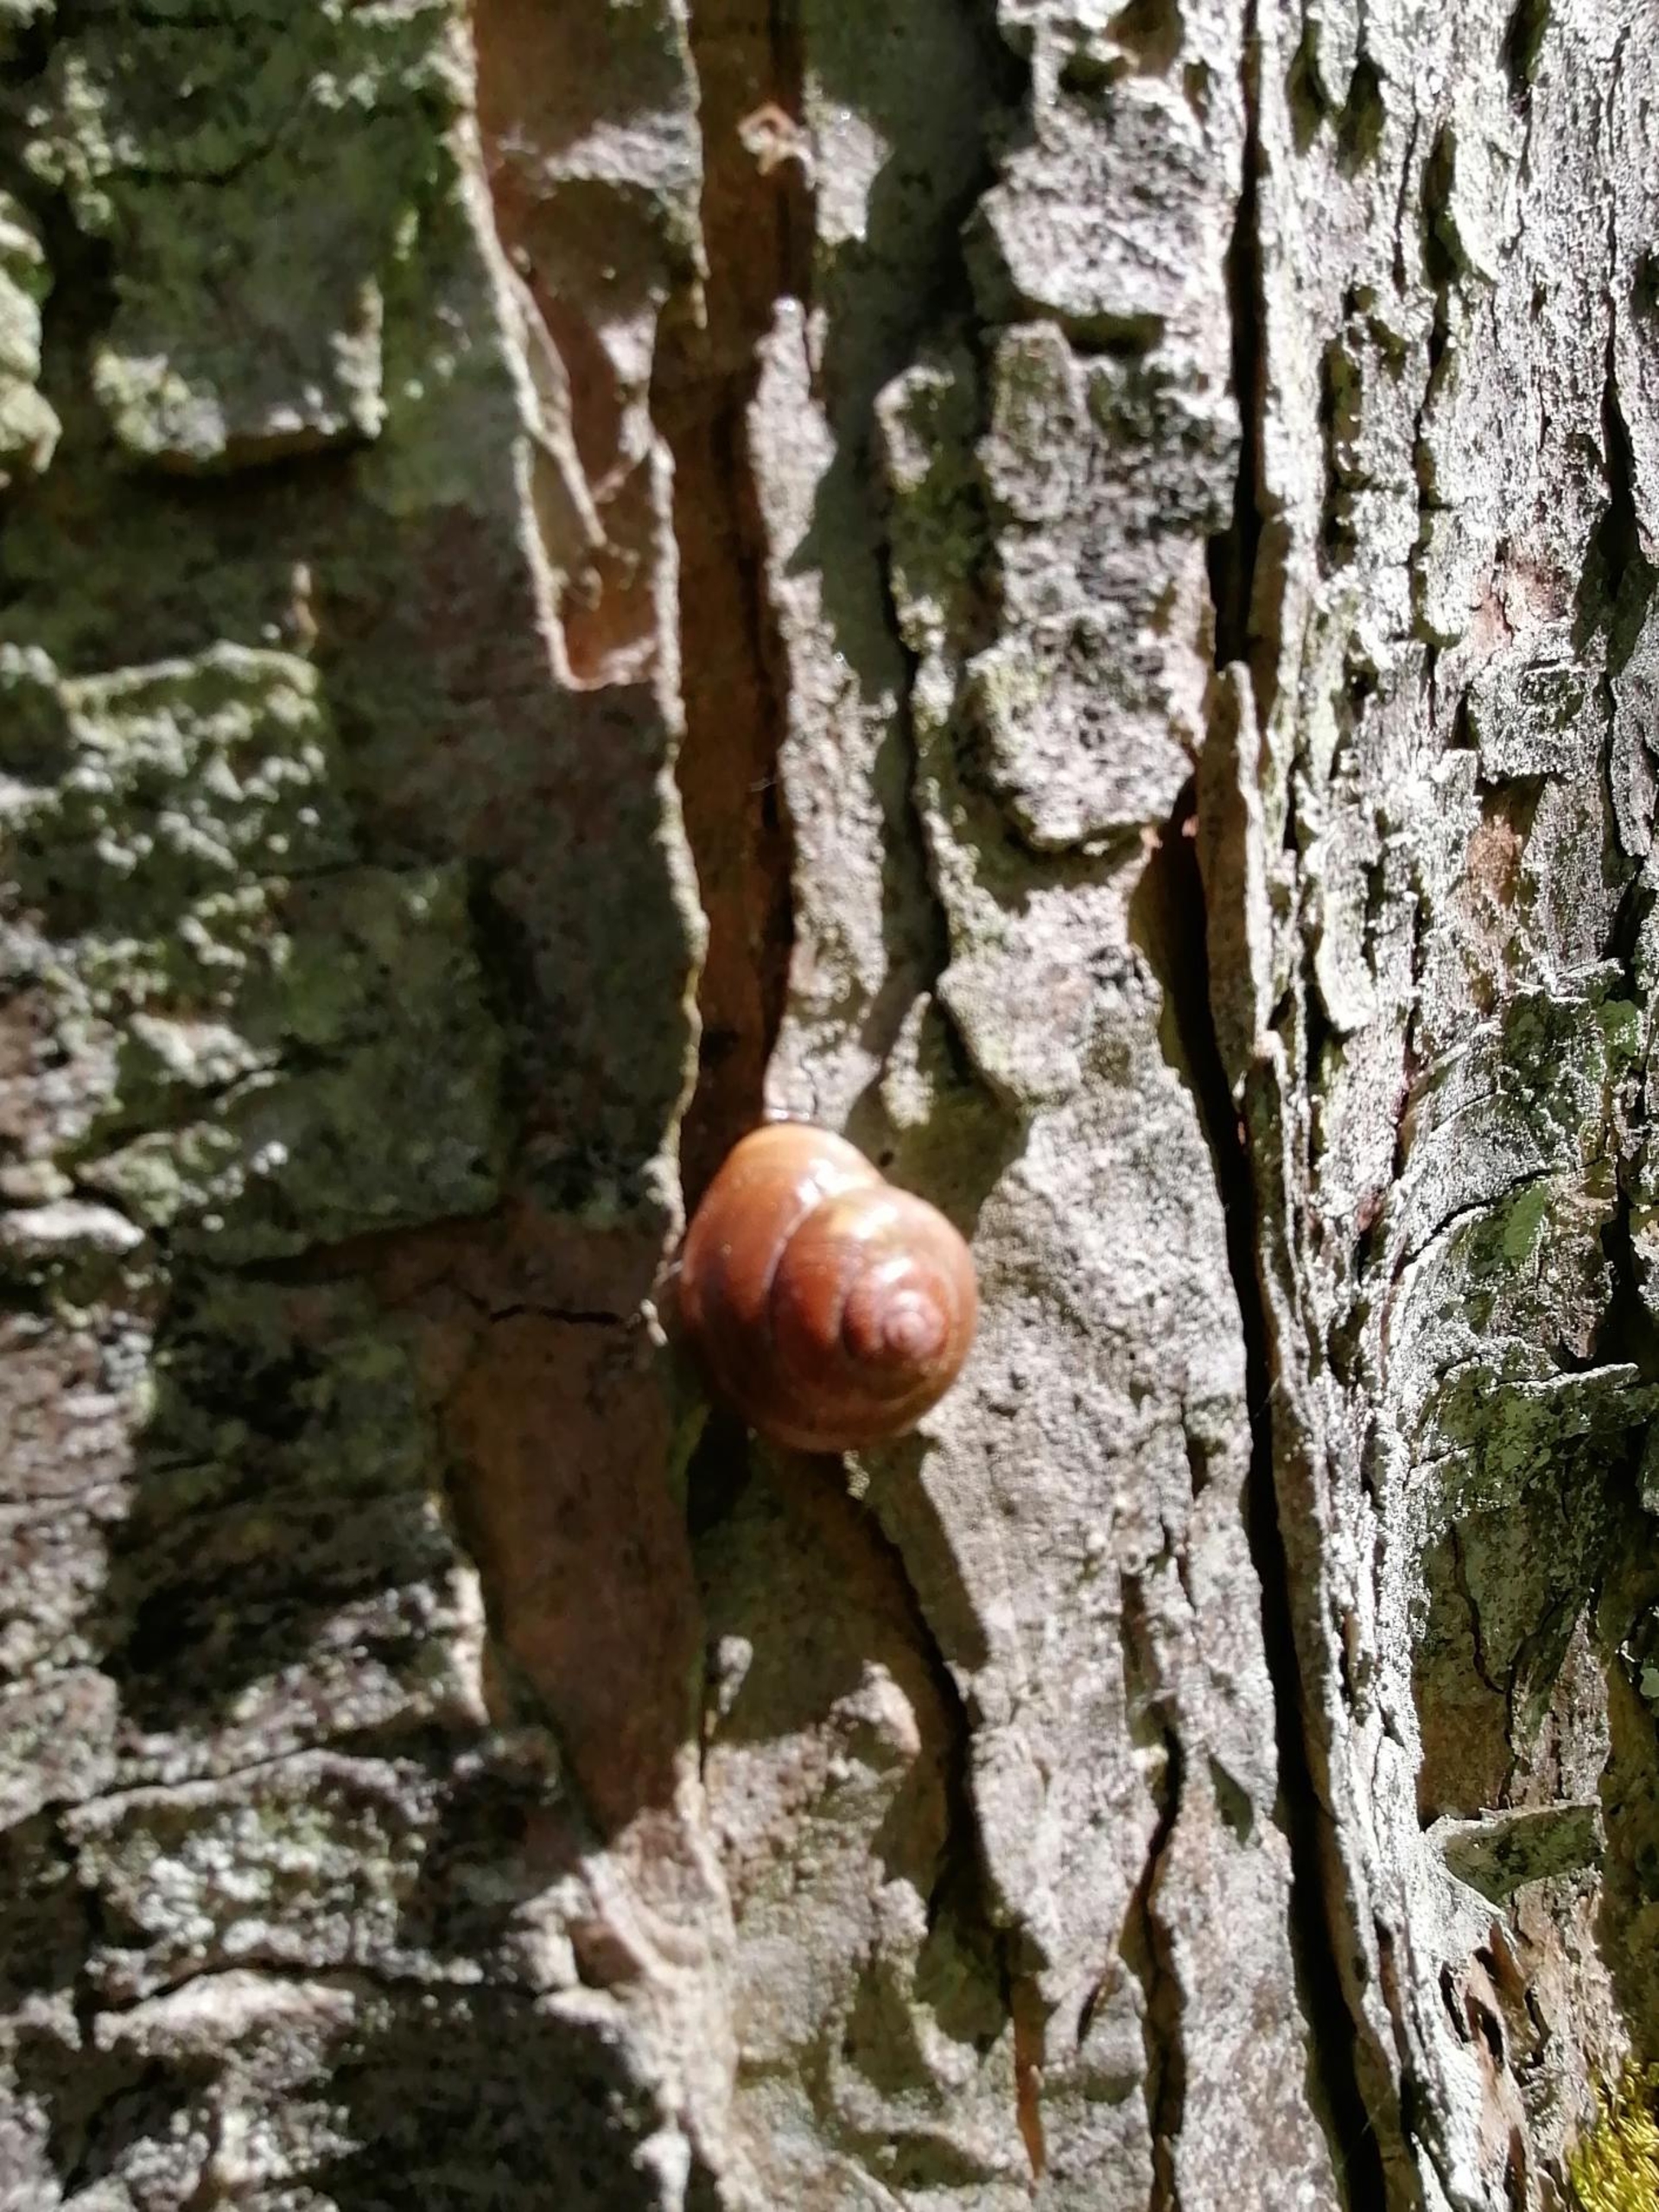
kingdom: Animalia
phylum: Mollusca
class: Gastropoda
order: Stylommatophora
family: Helicidae
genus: Cepaea
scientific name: Cepaea nemoralis
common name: Lundsnegl
